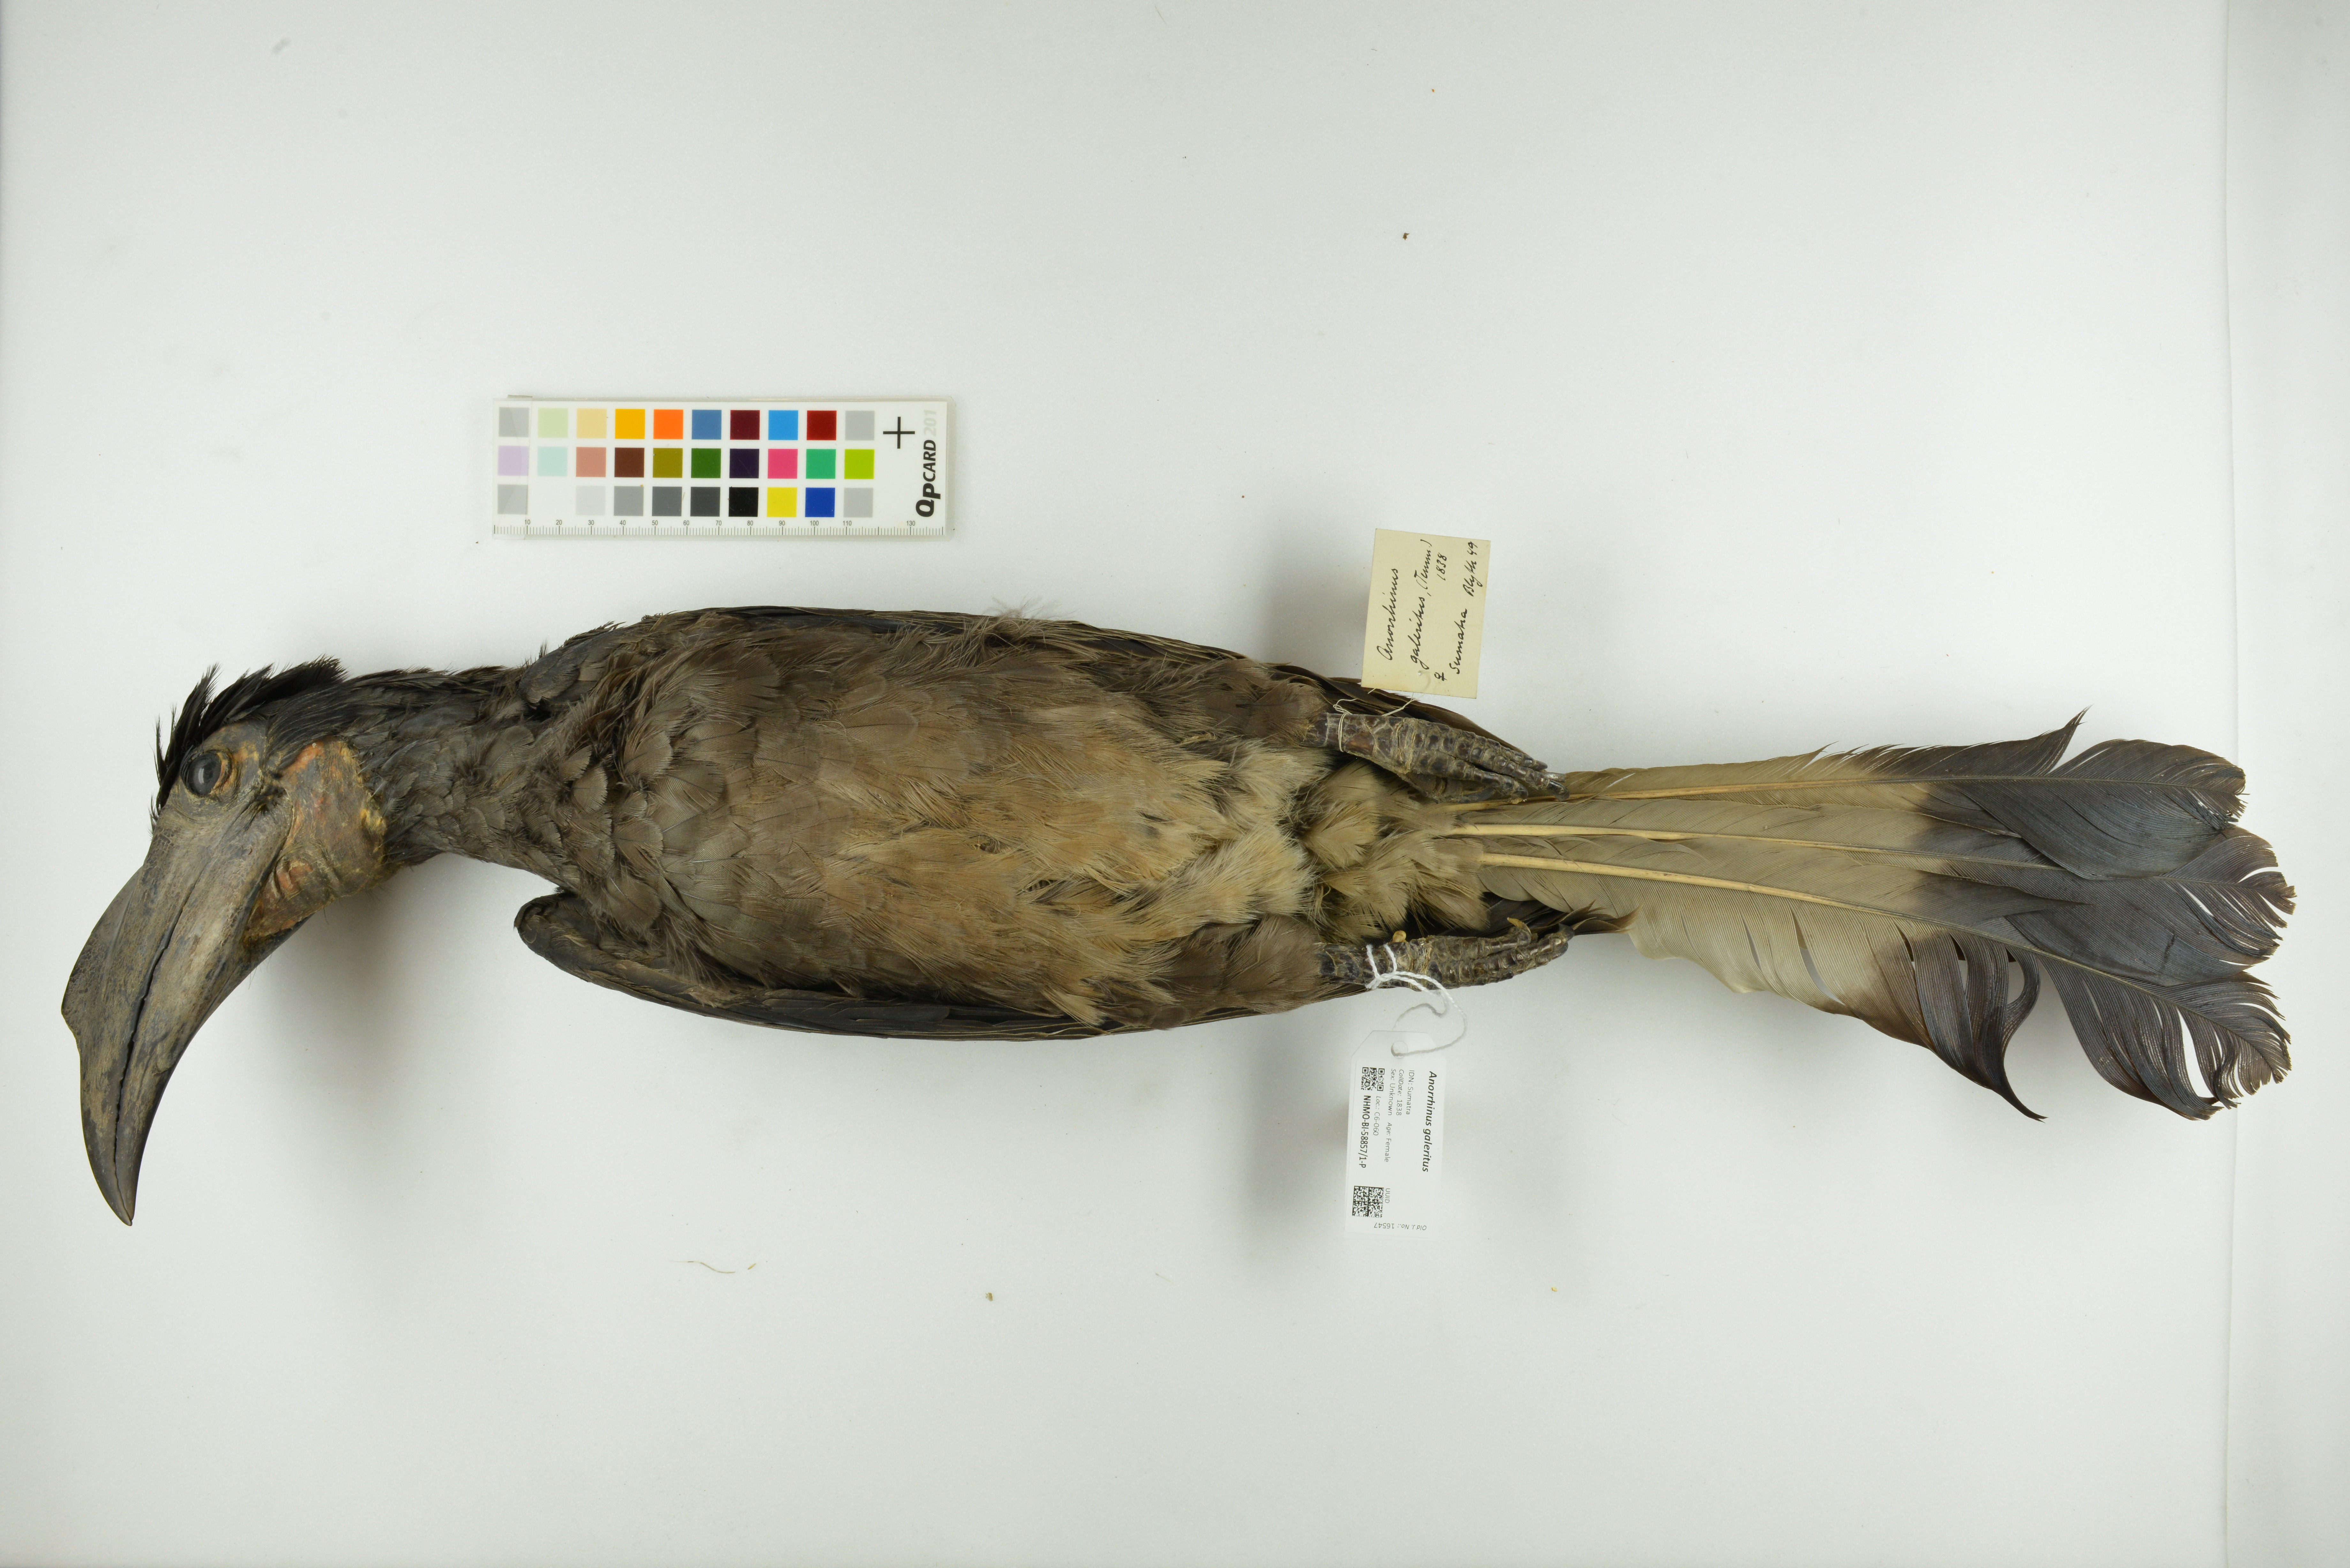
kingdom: Animalia
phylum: Chordata
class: Aves
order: Bucerotiformes
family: Bucerotidae
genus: Anorrhinus
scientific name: Anorrhinus galeritus
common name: Bushy-crested hornbill
